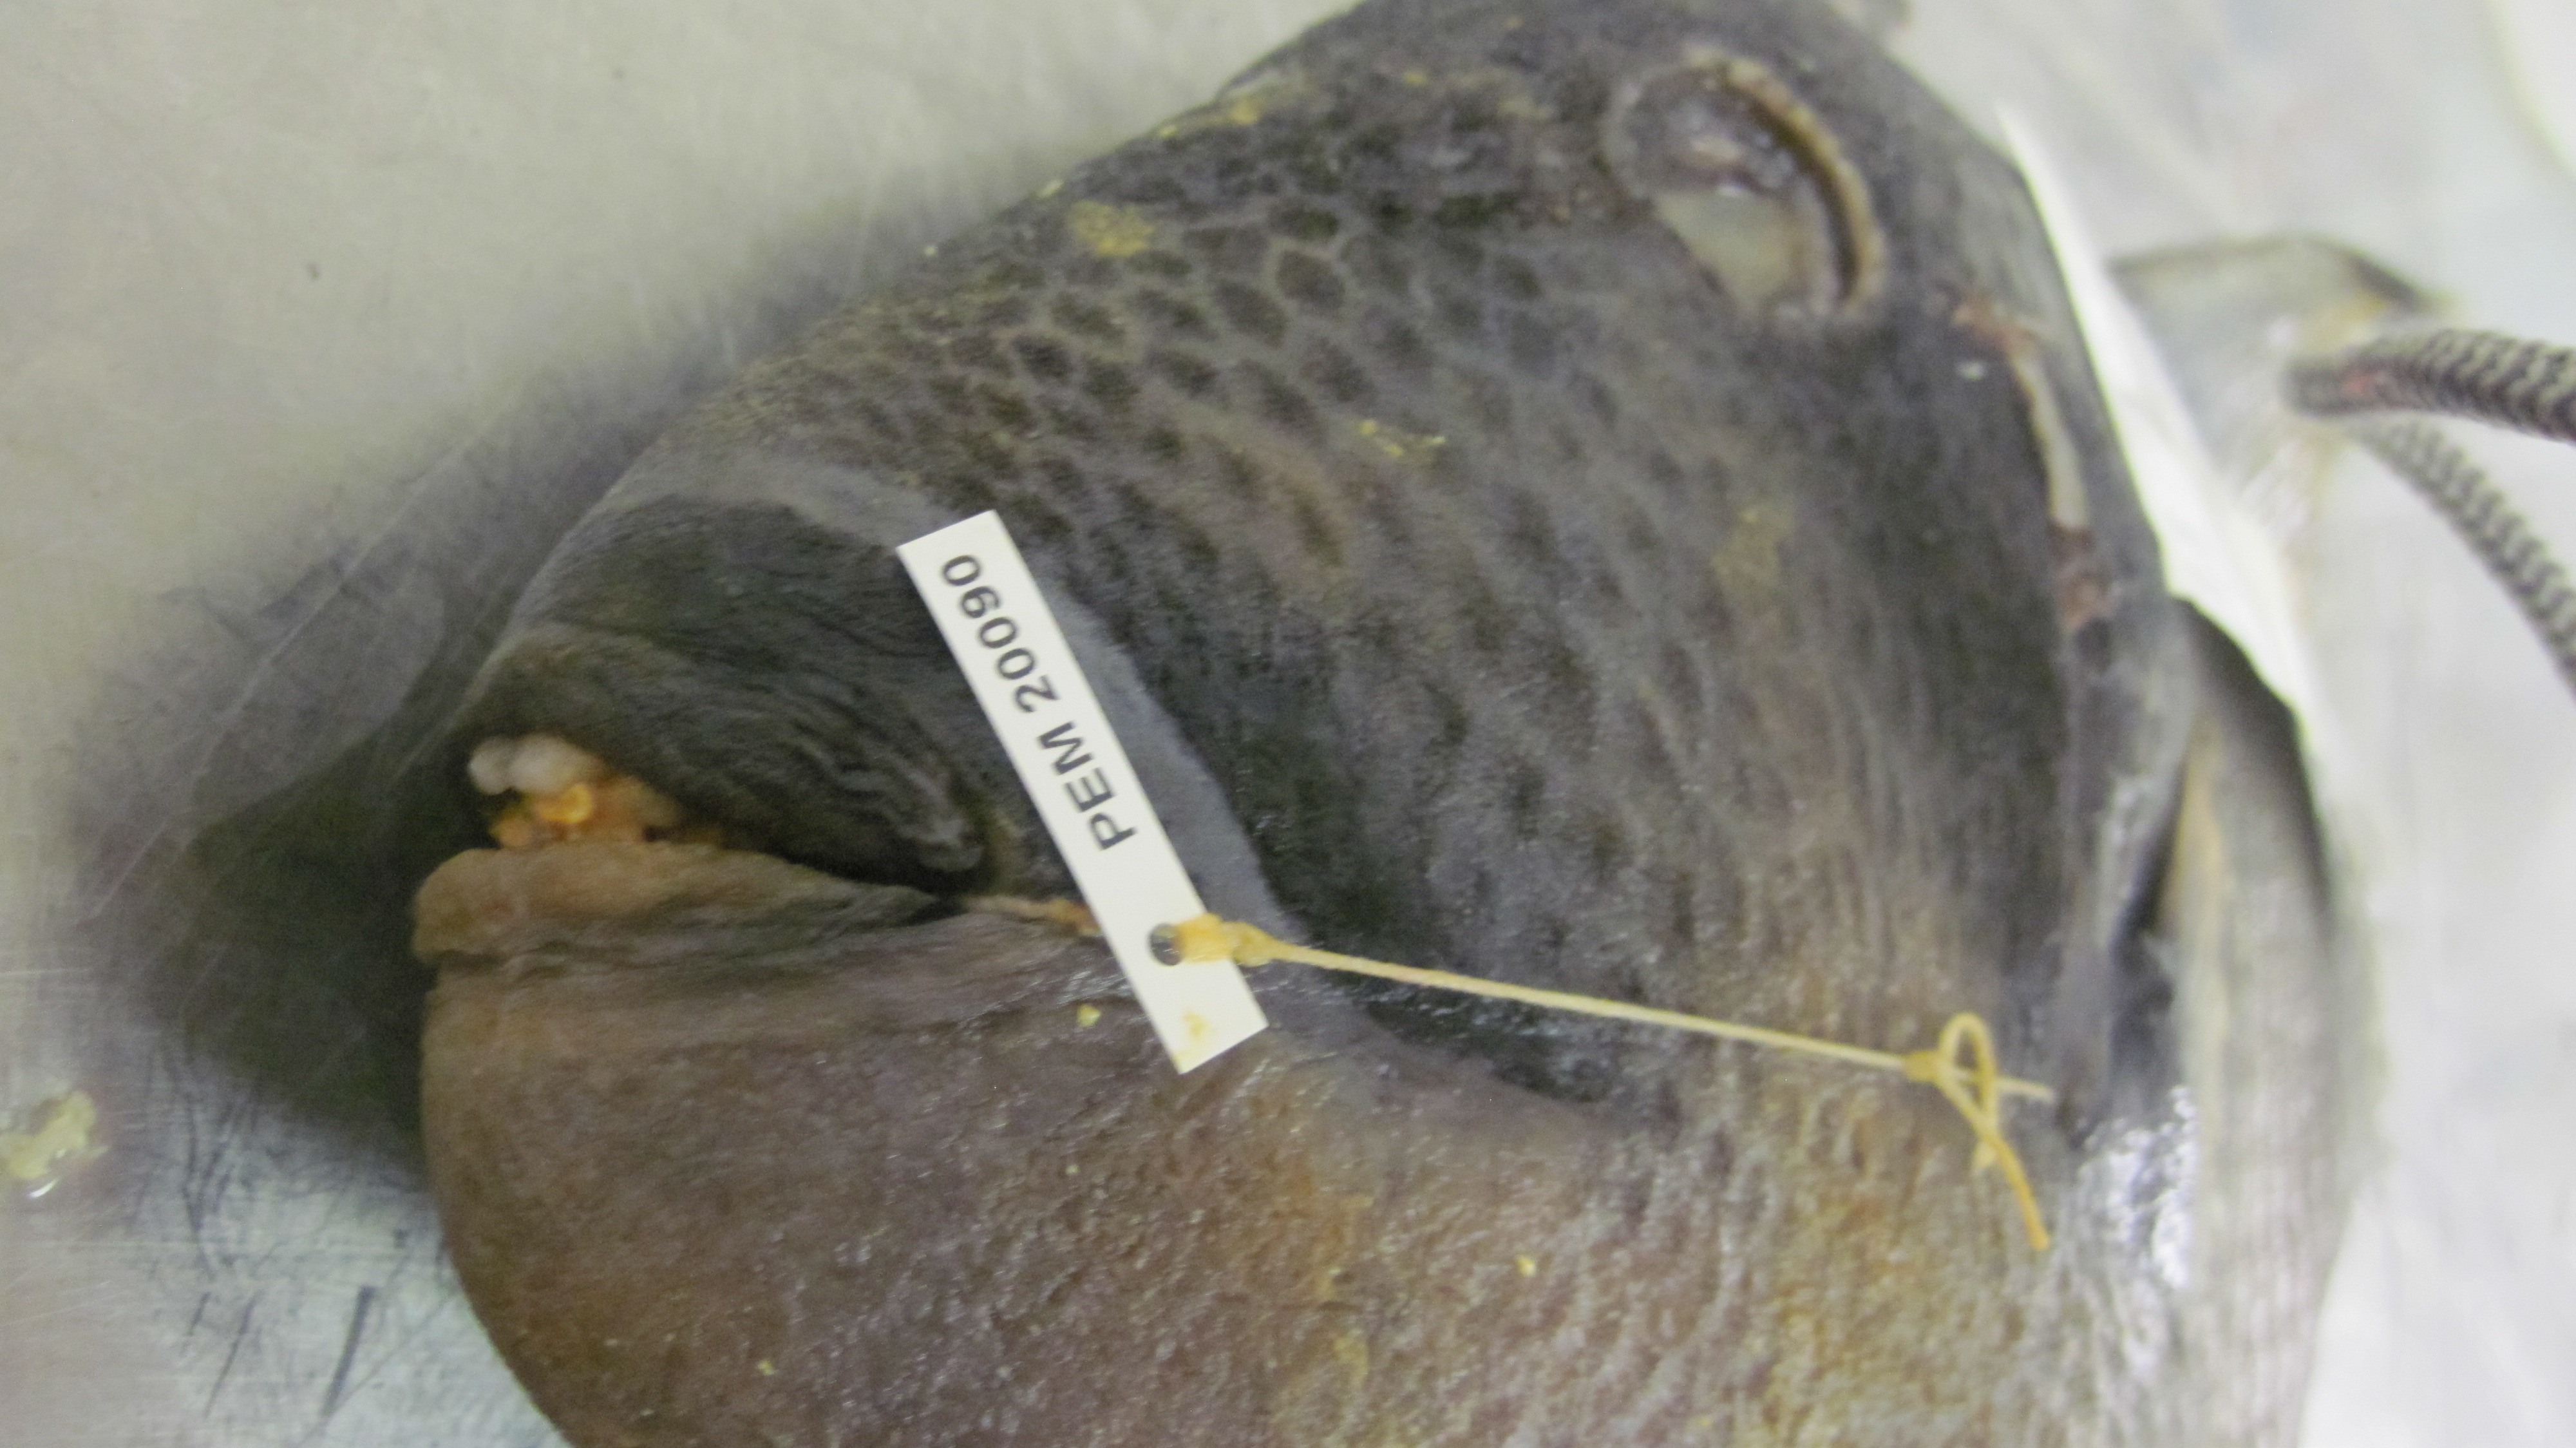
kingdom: Animalia
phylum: Chordata
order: Tetraodontiformes
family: Balistidae
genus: Balistoides
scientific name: Balistoides viridescens
